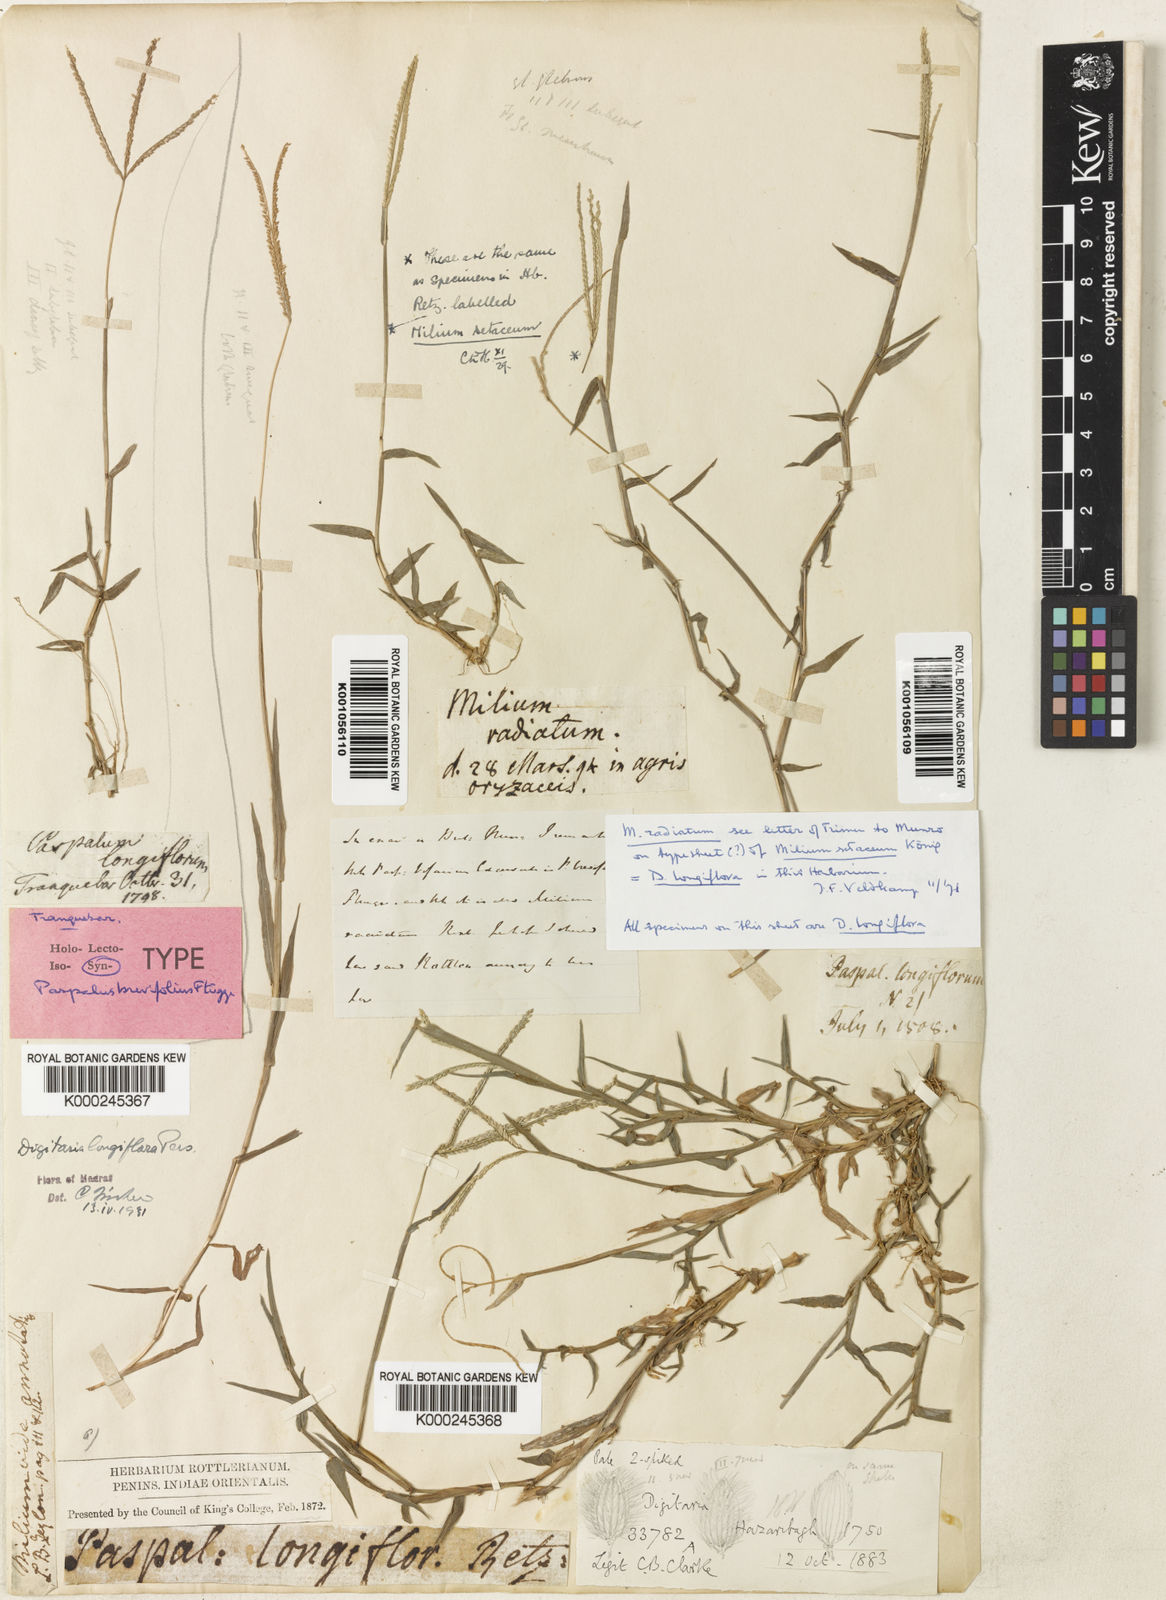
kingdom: Plantae
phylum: Tracheophyta
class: Liliopsida
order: Poales
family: Poaceae
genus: Digitaria
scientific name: Digitaria longiflora
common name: Wire crabgrass
